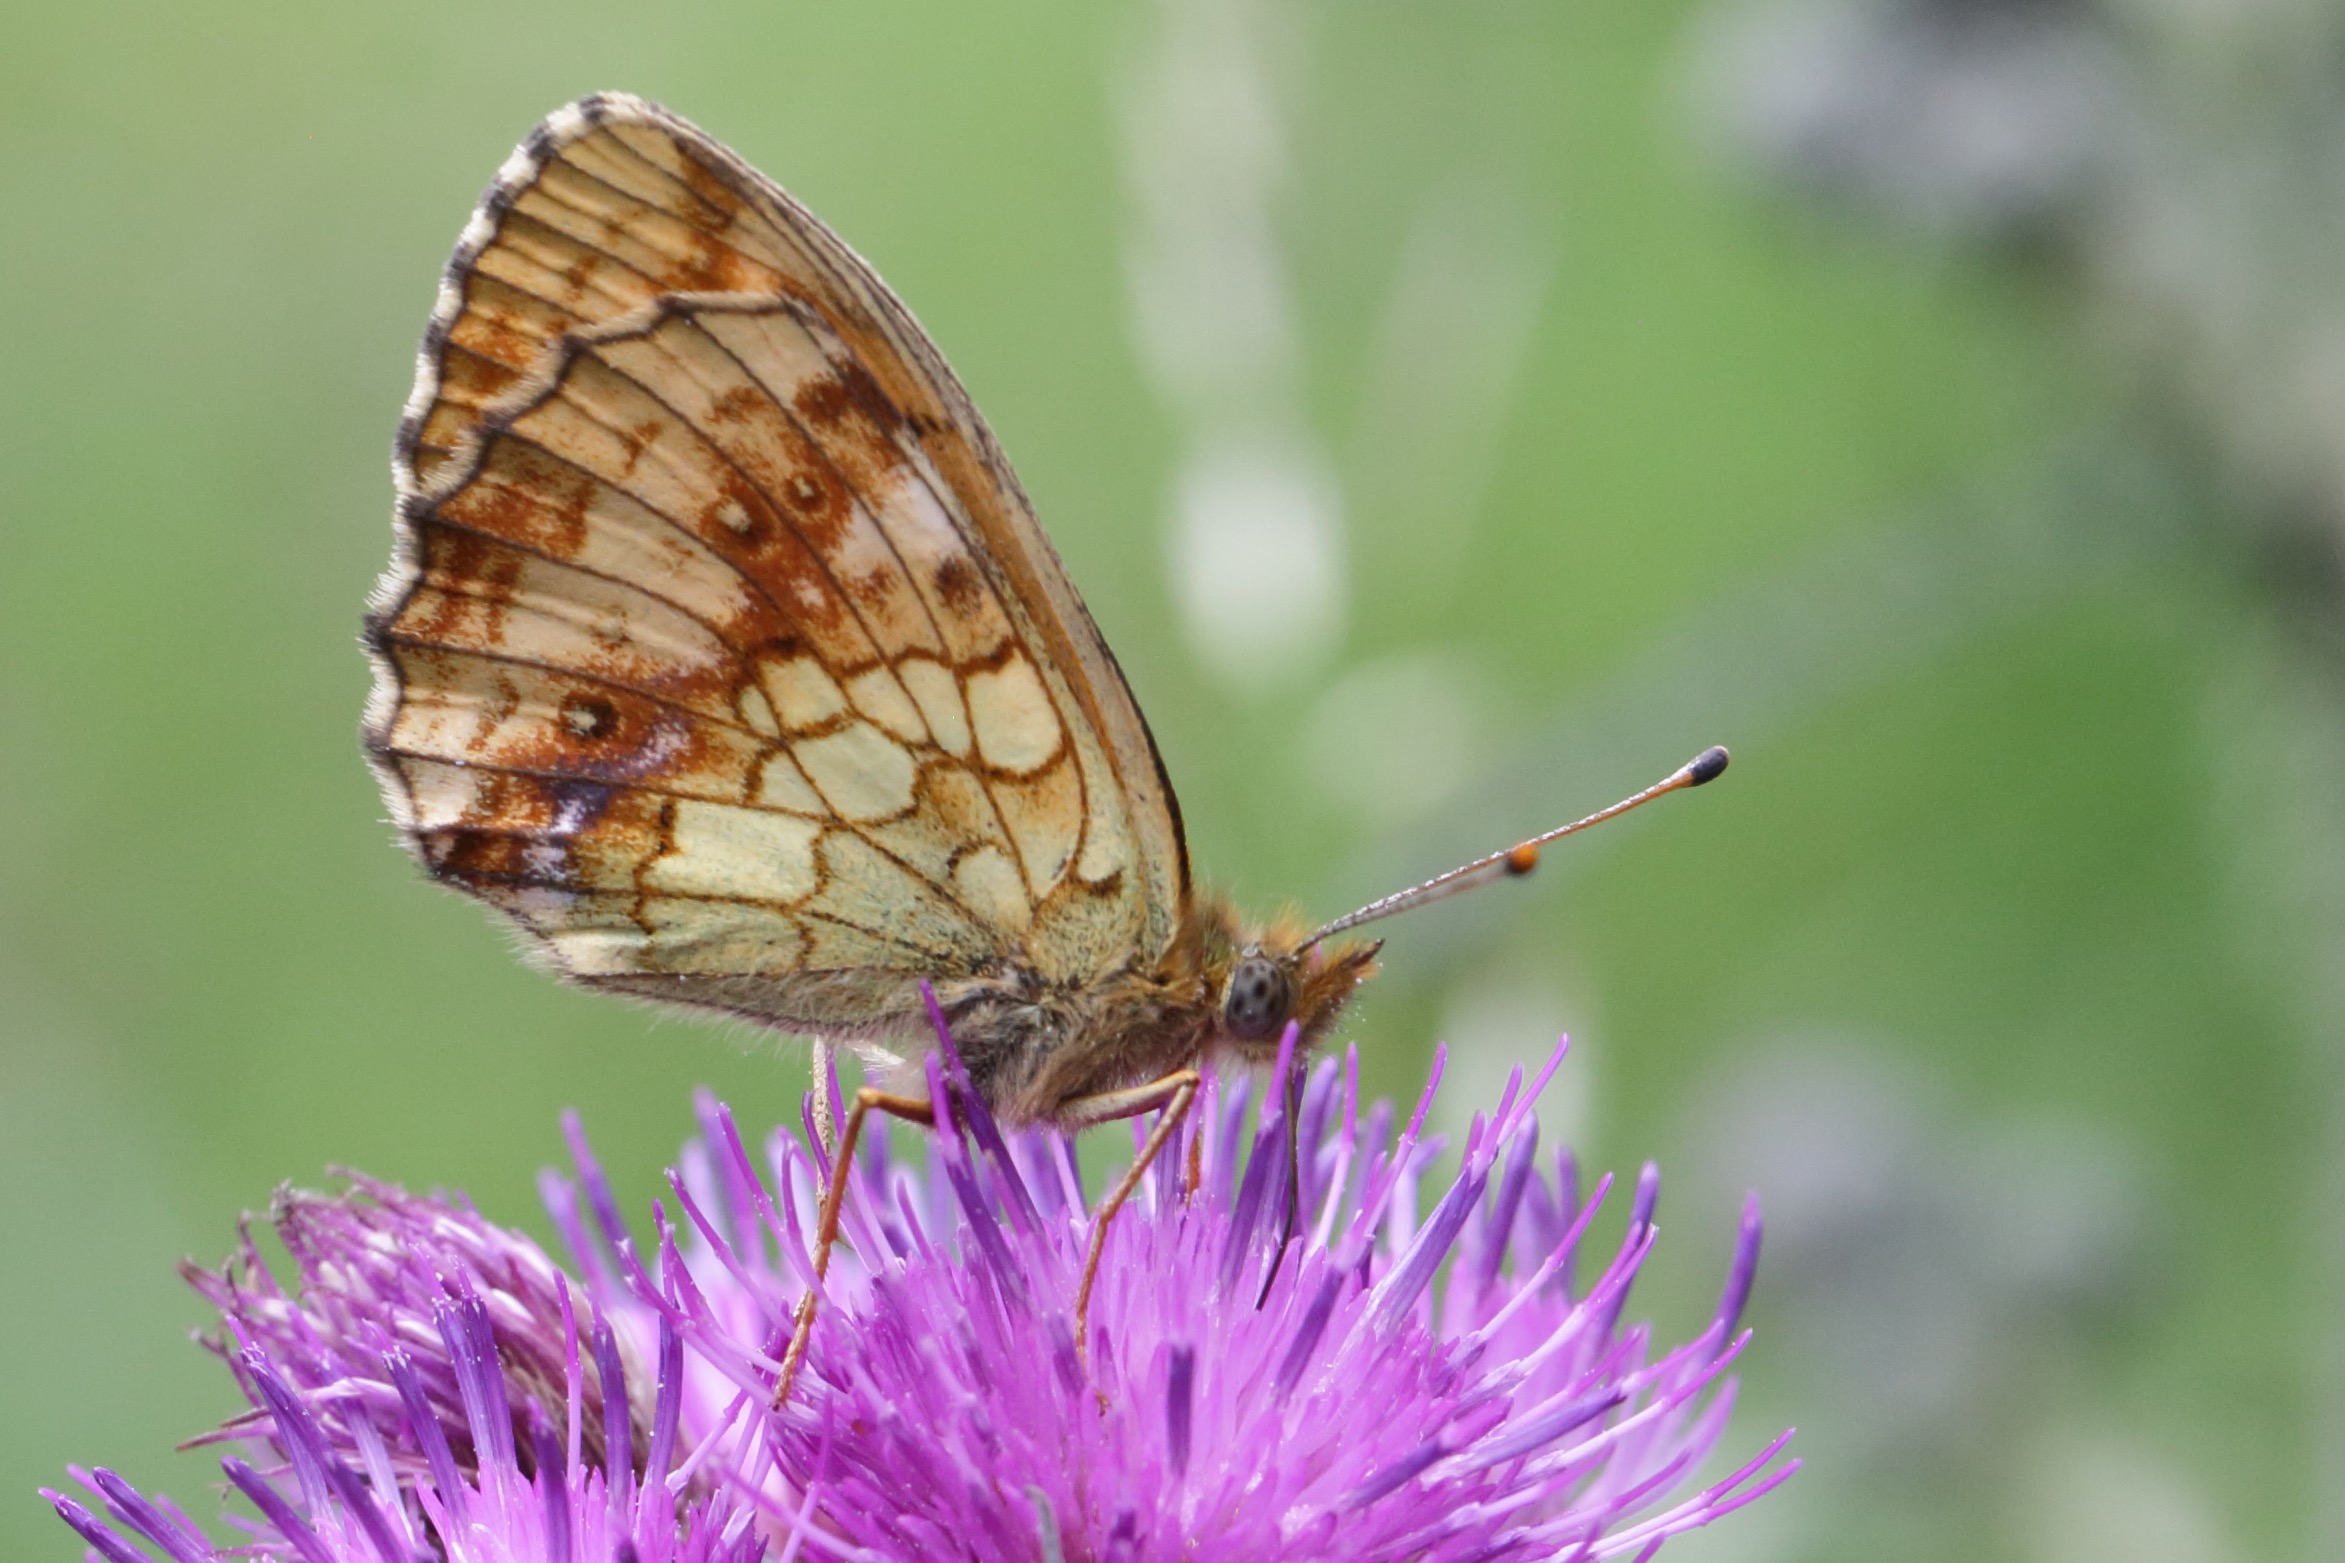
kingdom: Animalia
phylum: Arthropoda
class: Insecta
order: Lepidoptera
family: Nymphalidae
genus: Brenthis
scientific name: Brenthis ino
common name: Engperlemorsommerfugl
